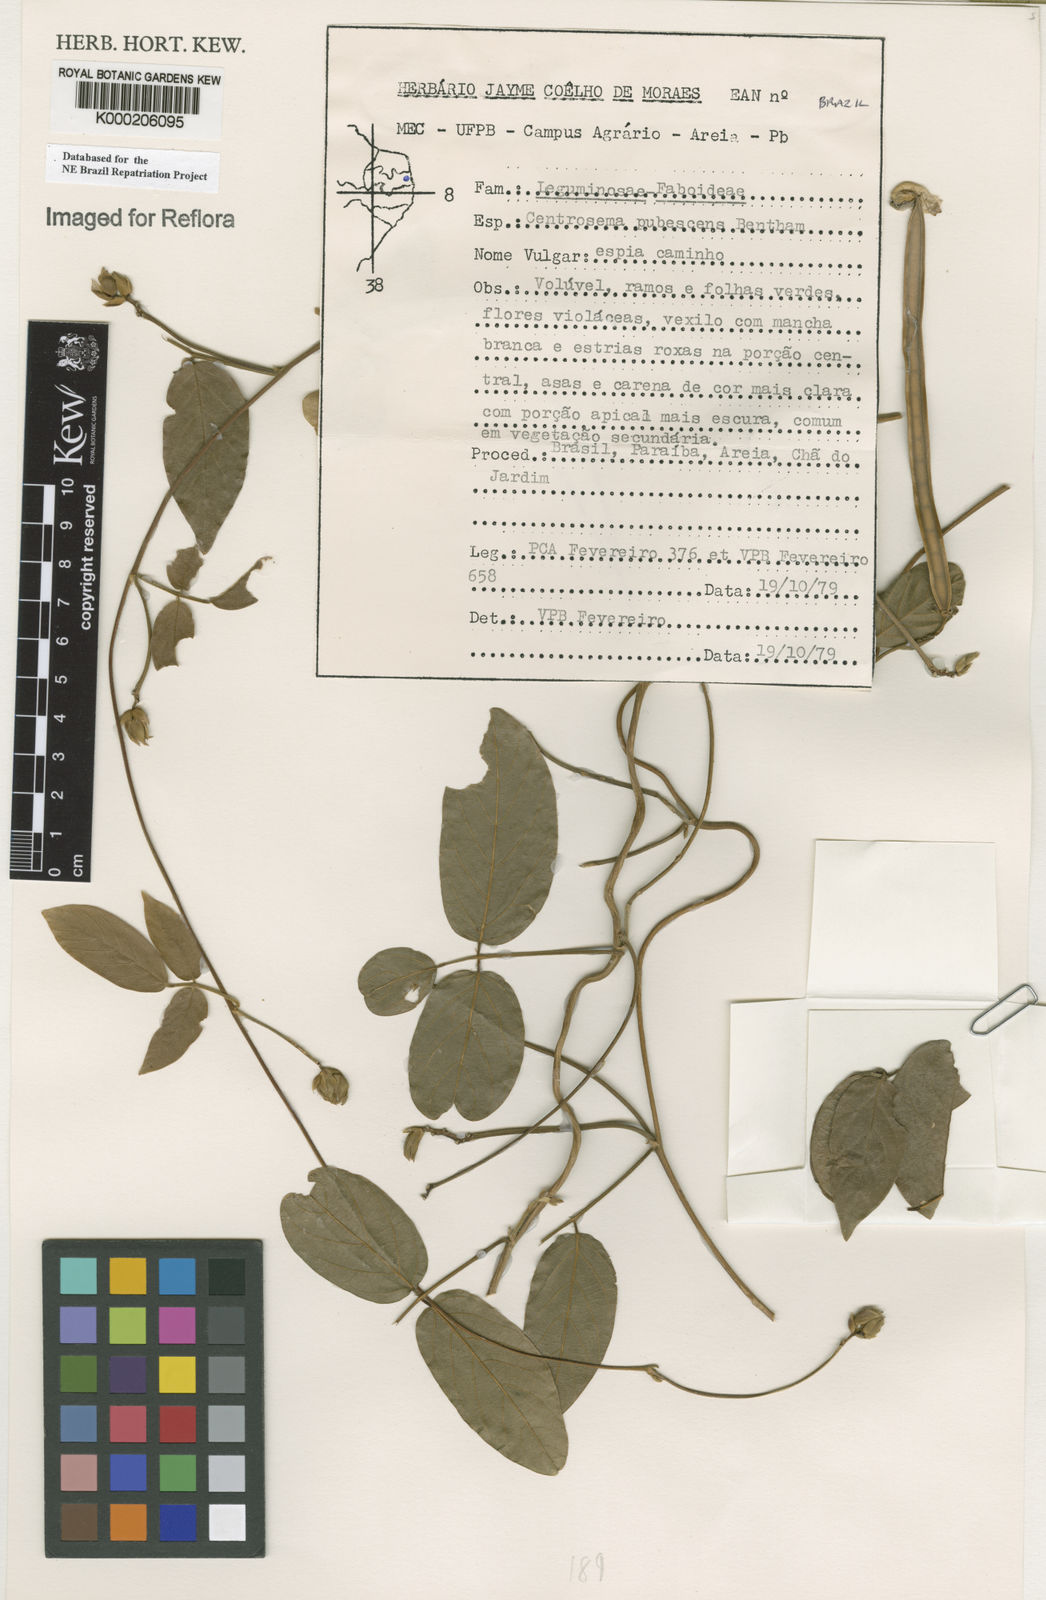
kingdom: Plantae
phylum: Tracheophyta
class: Magnoliopsida
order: Fabales
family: Fabaceae
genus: Centrosema
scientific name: Centrosema pubescens
